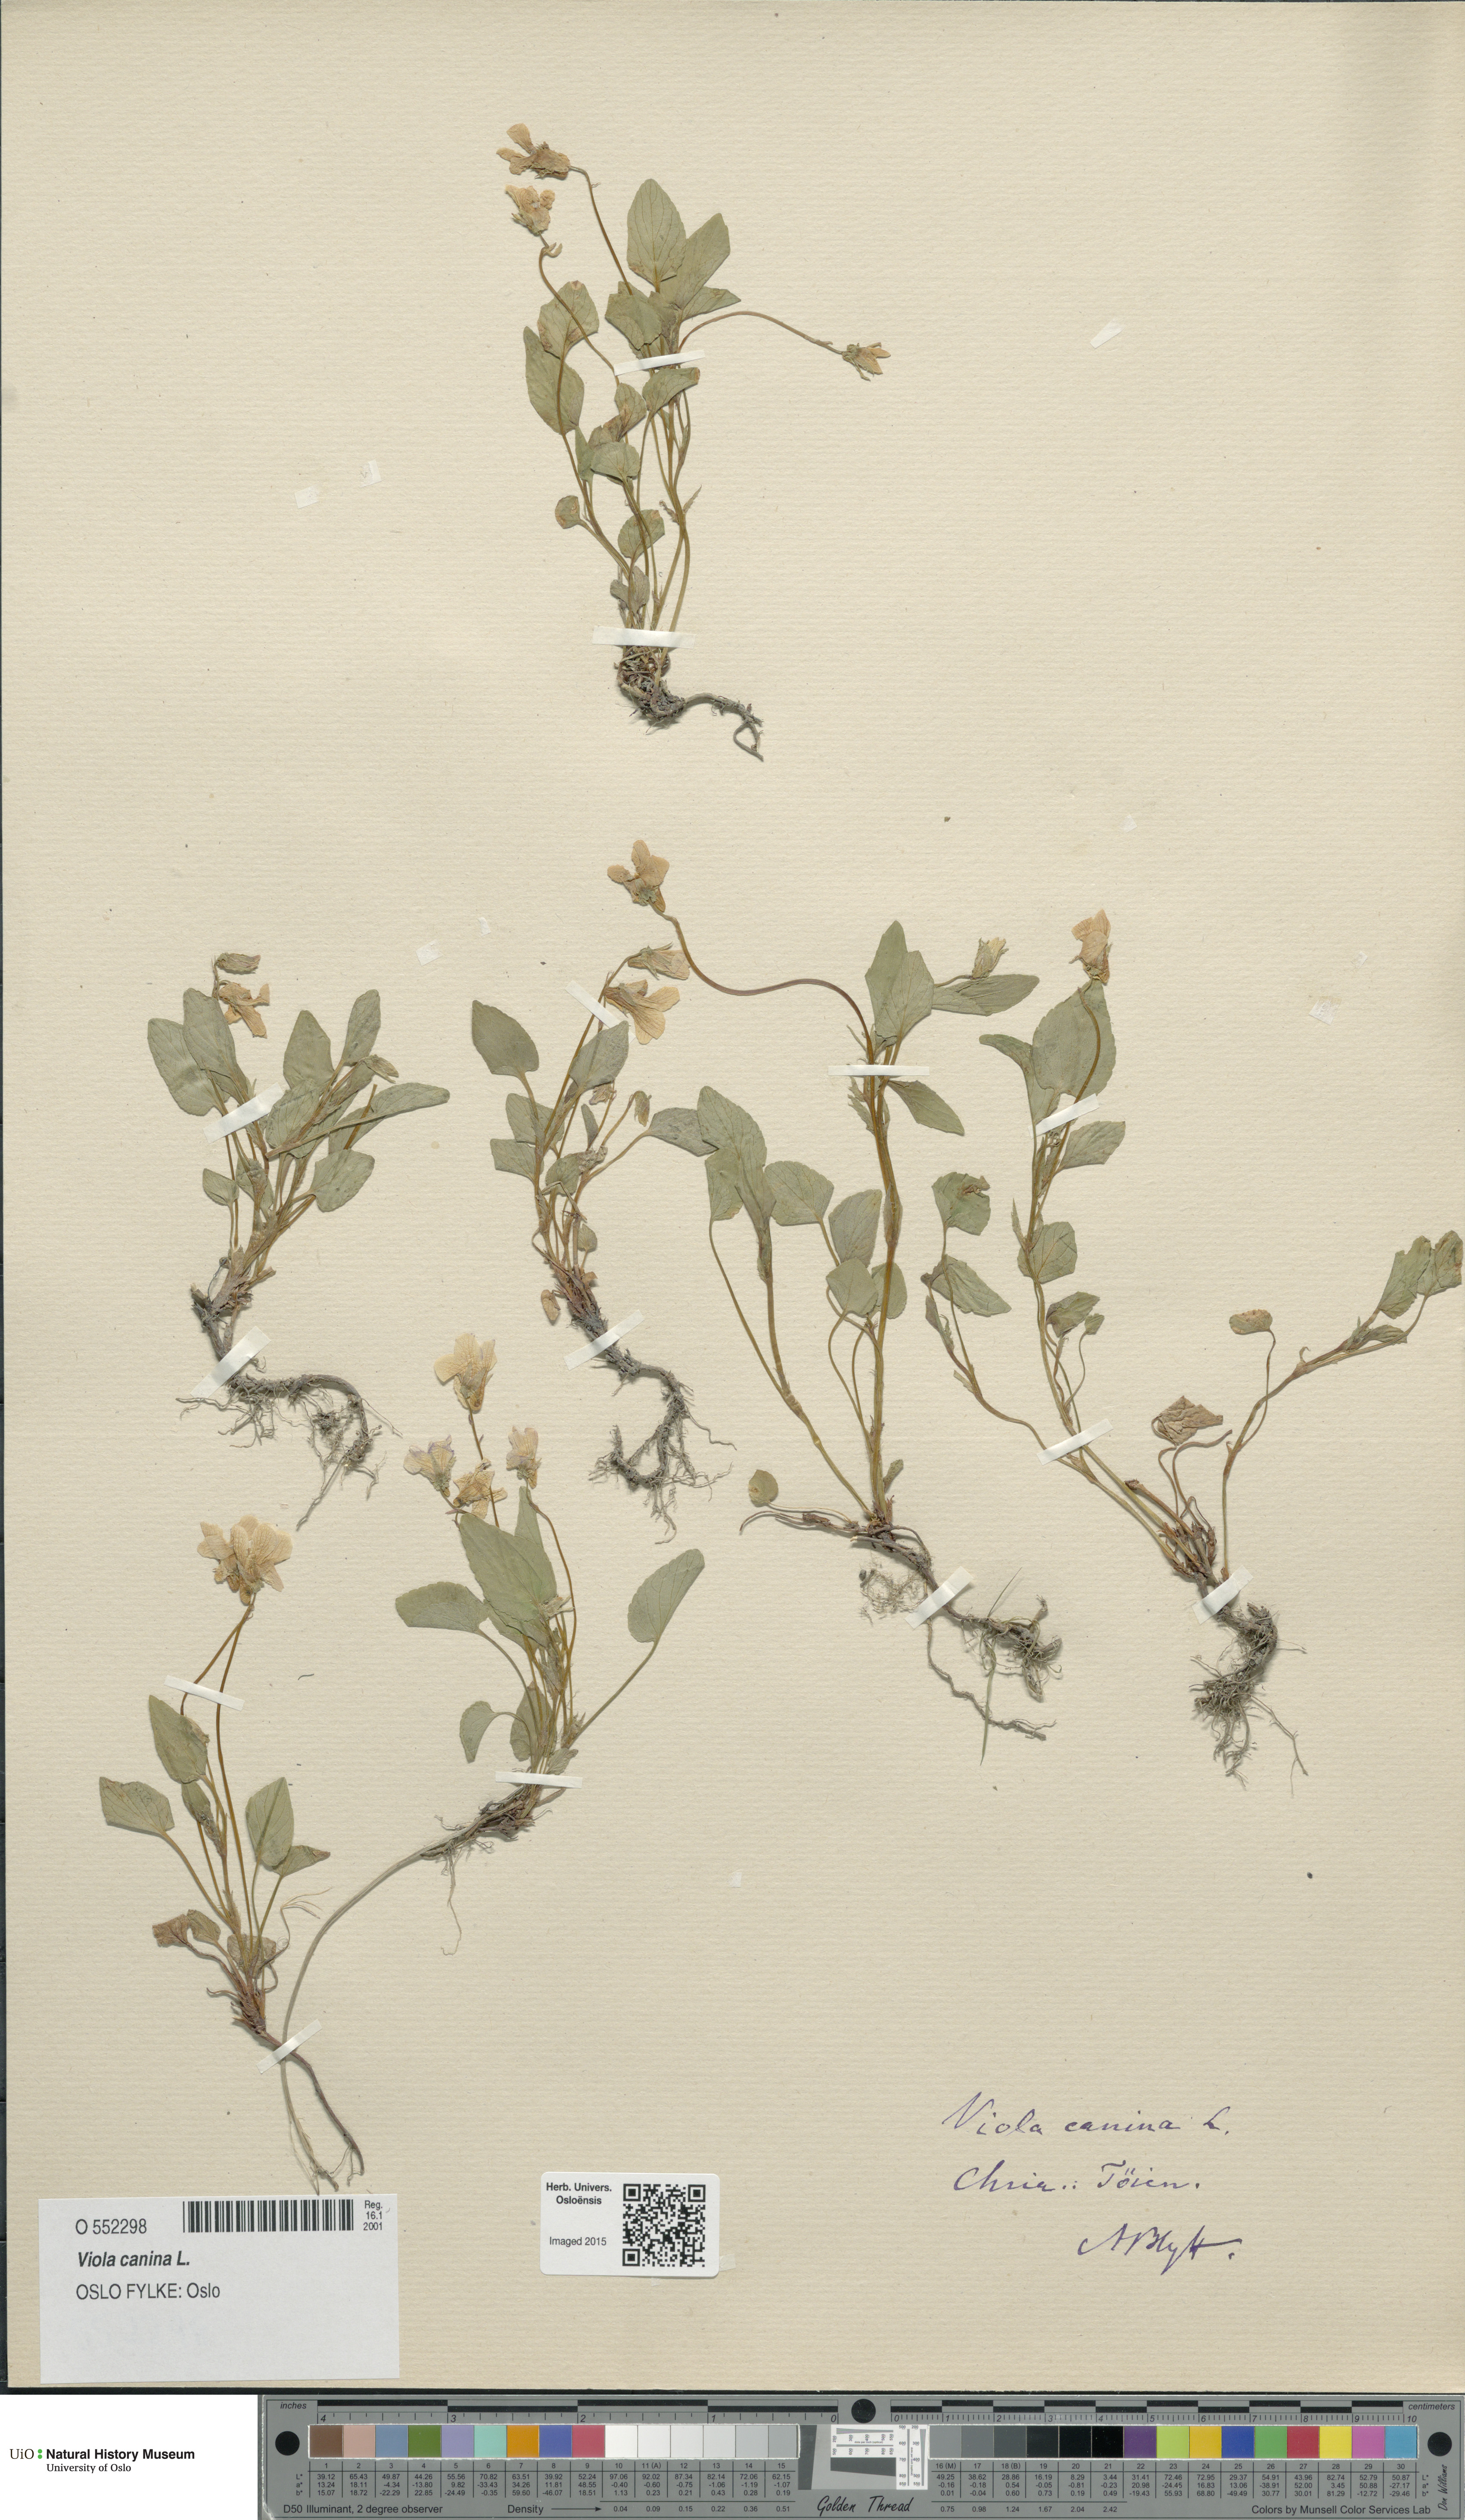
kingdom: Plantae
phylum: Tracheophyta
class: Magnoliopsida
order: Malpighiales
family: Violaceae
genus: Viola
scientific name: Viola canina
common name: Heath dog-violet
